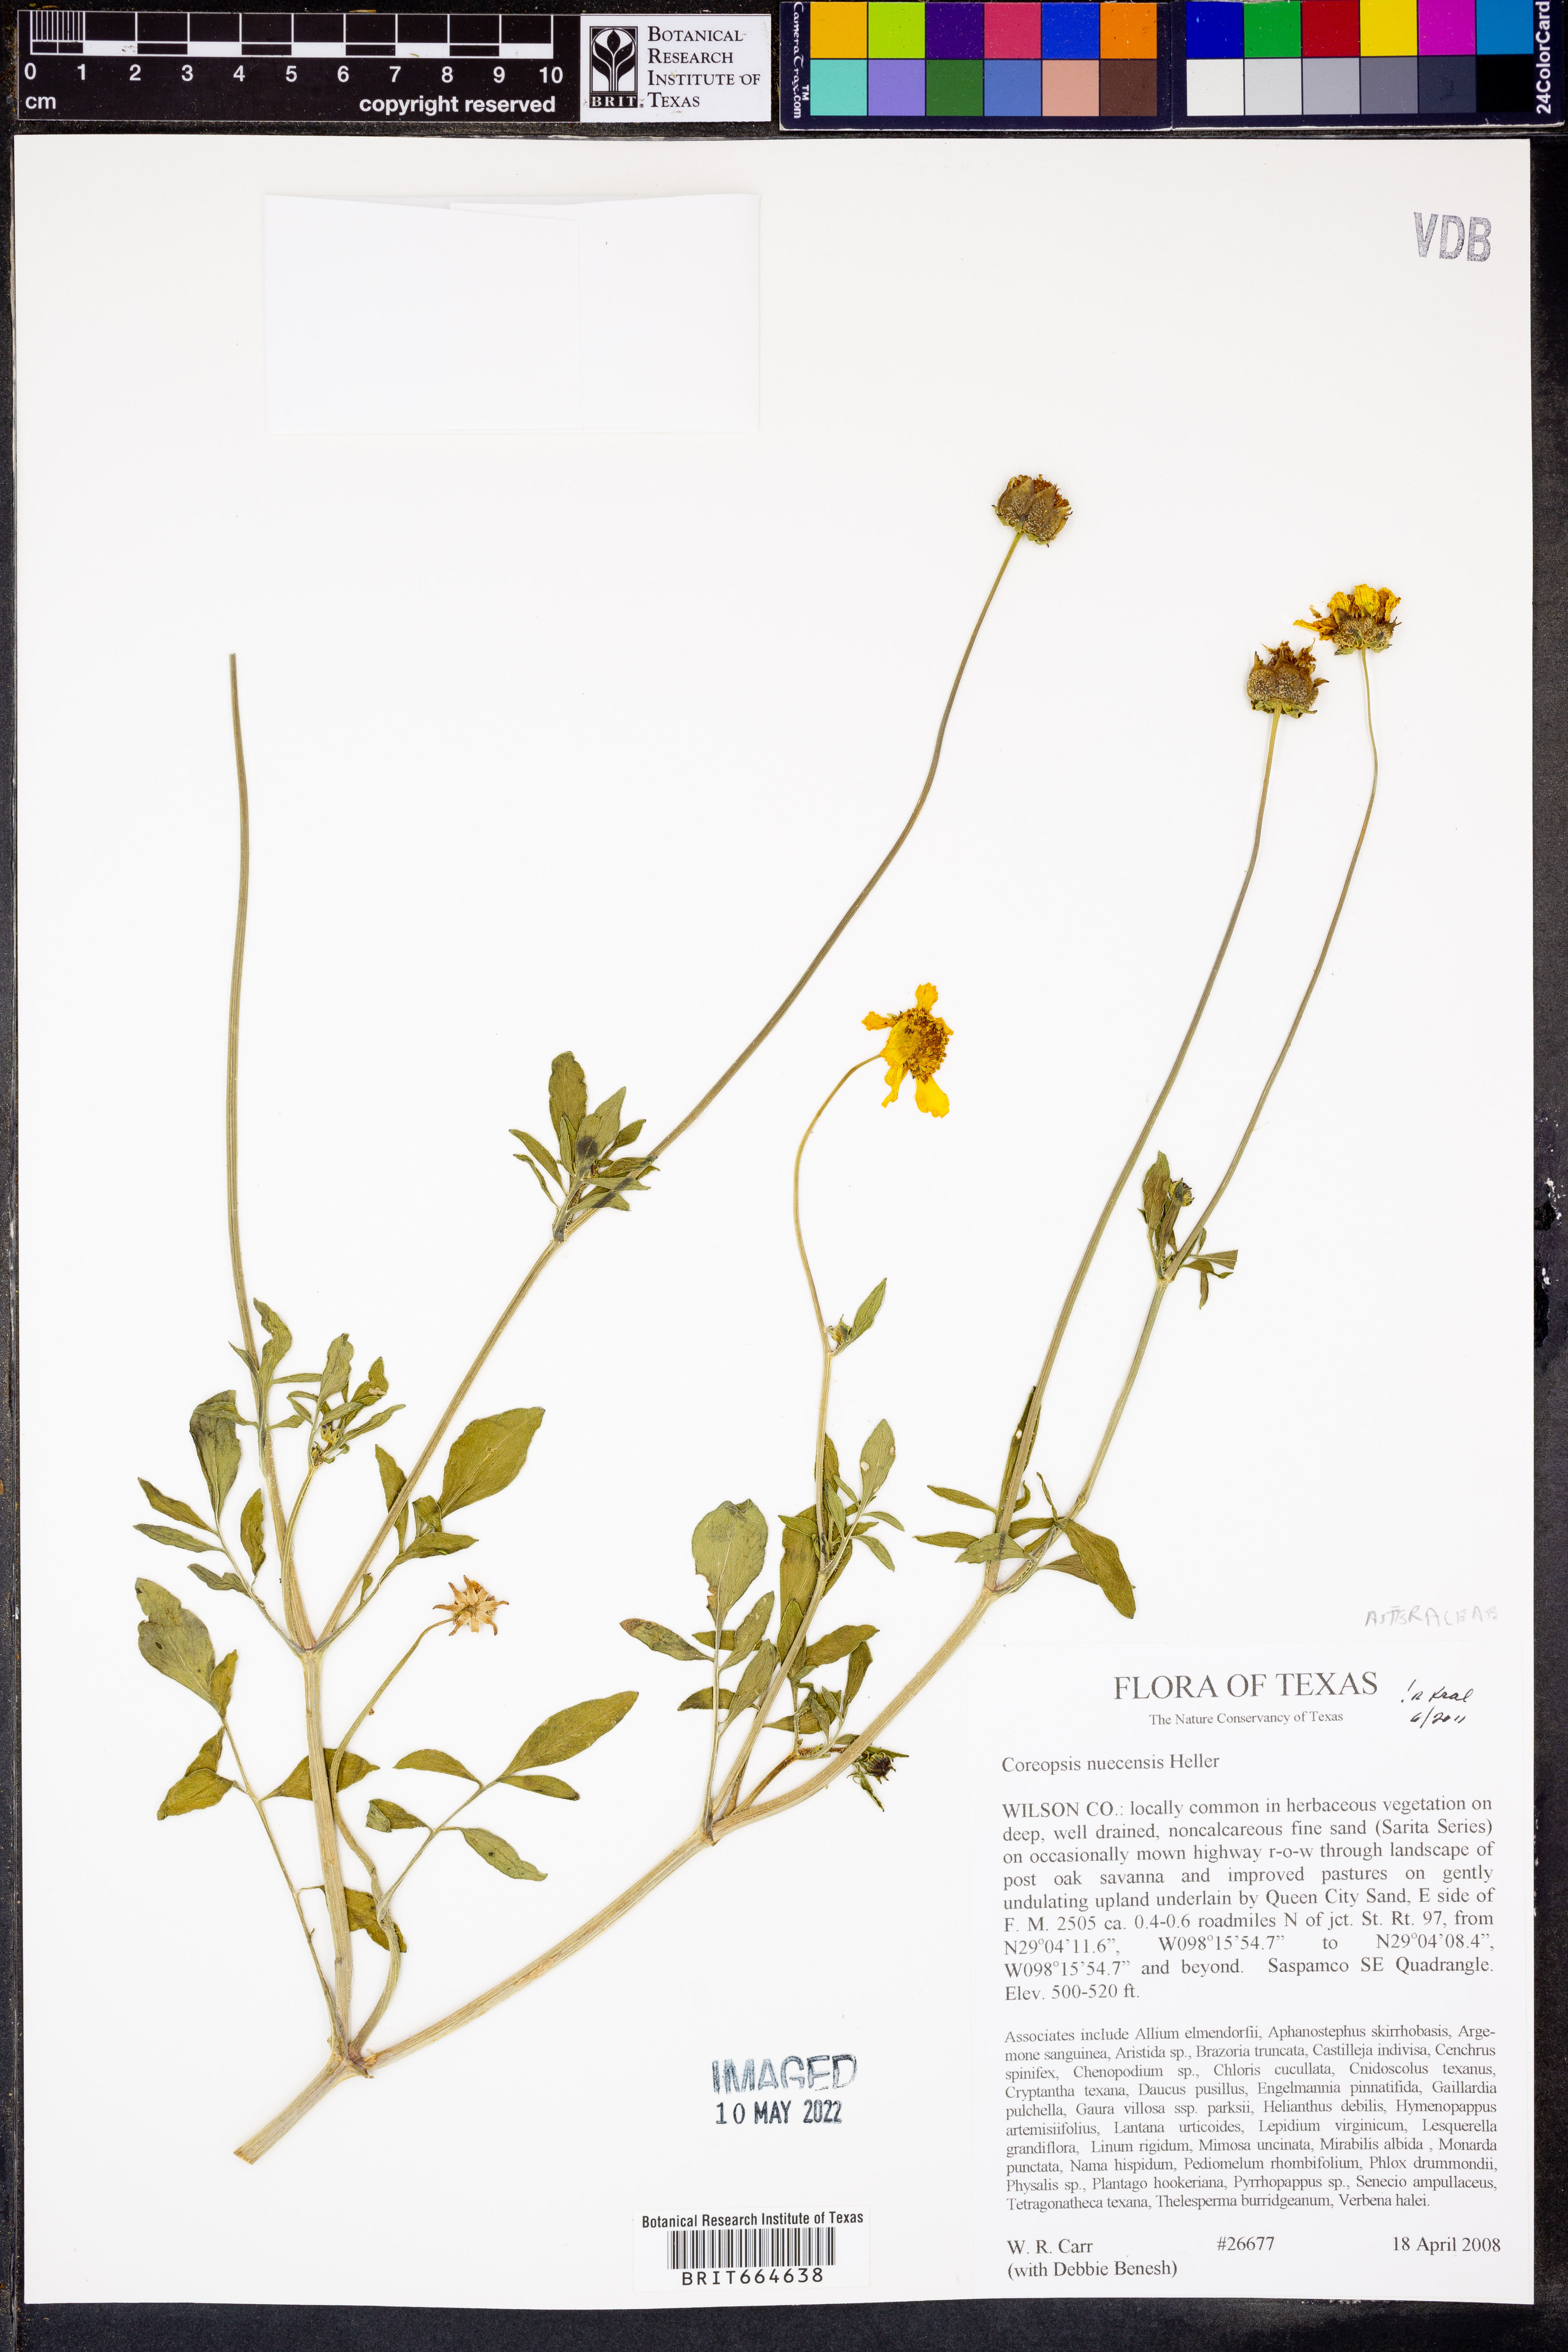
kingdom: Plantae
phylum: Tracheophyta
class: Magnoliopsida
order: Asterales
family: Asteraceae
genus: Coreopsis
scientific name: Coreopsis nuecensis
